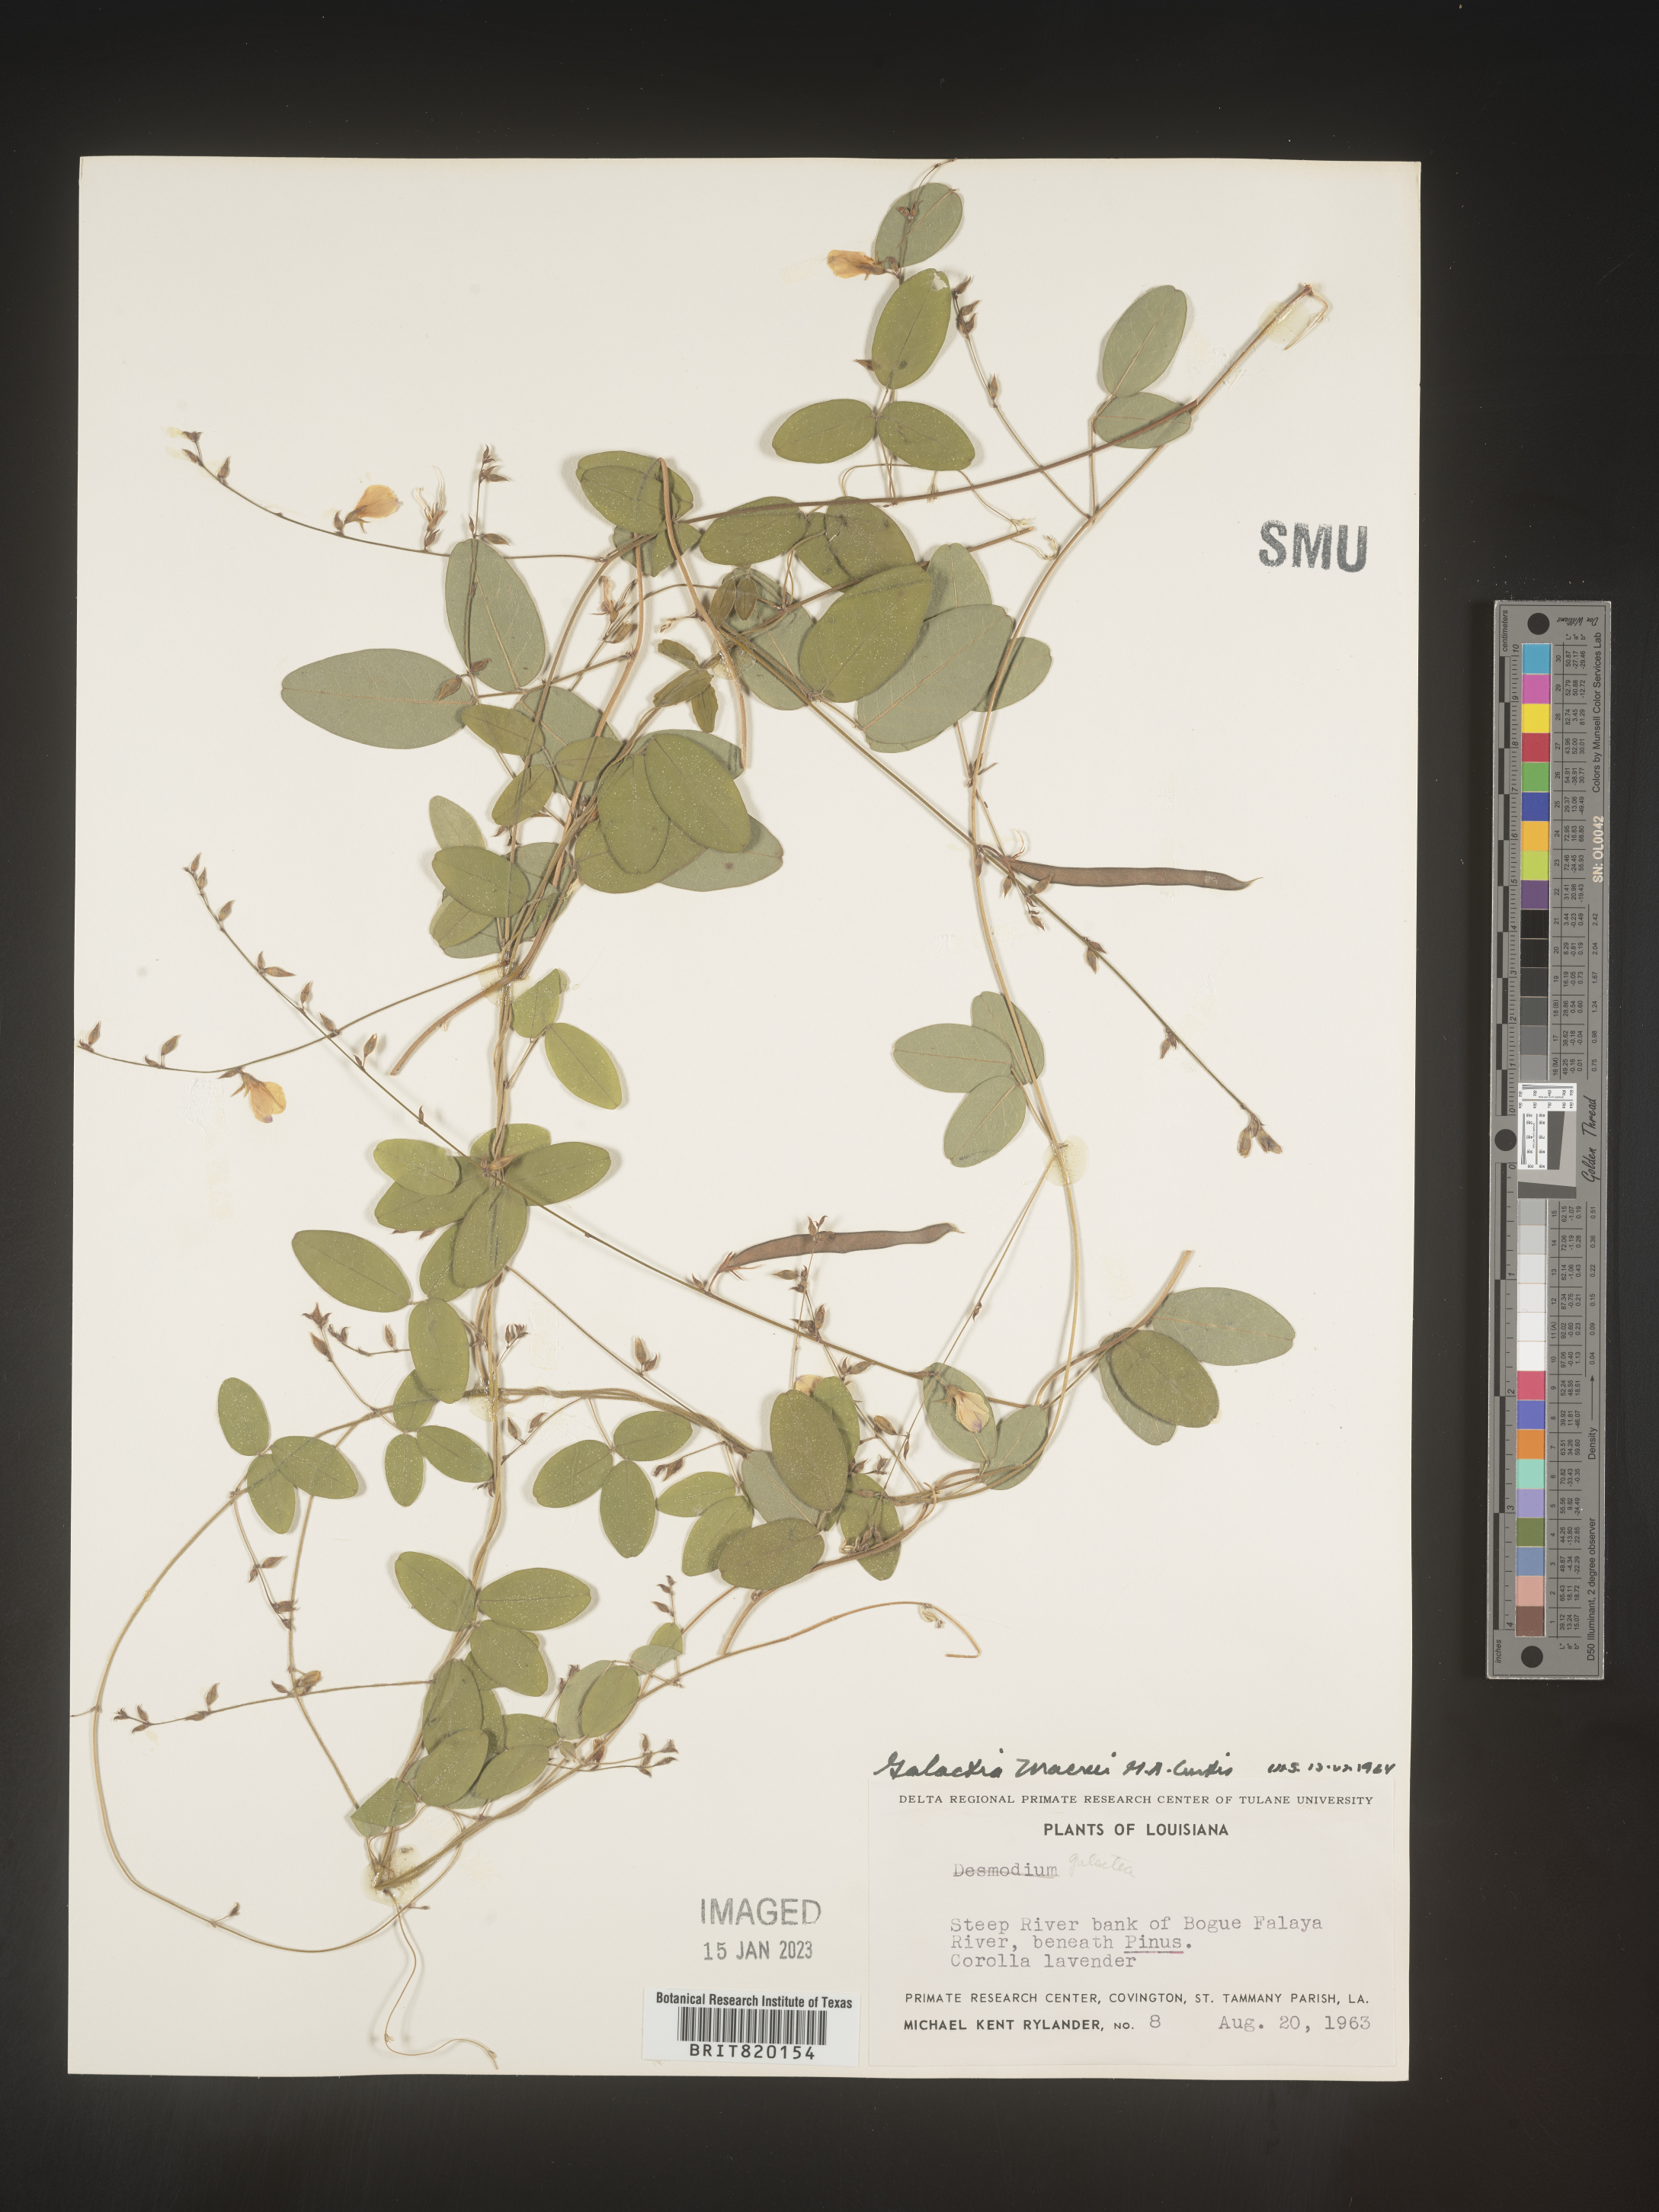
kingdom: Plantae
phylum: Tracheophyta
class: Magnoliopsida
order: Fabales
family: Fabaceae
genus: Galactia
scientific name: Galactia volubilis
